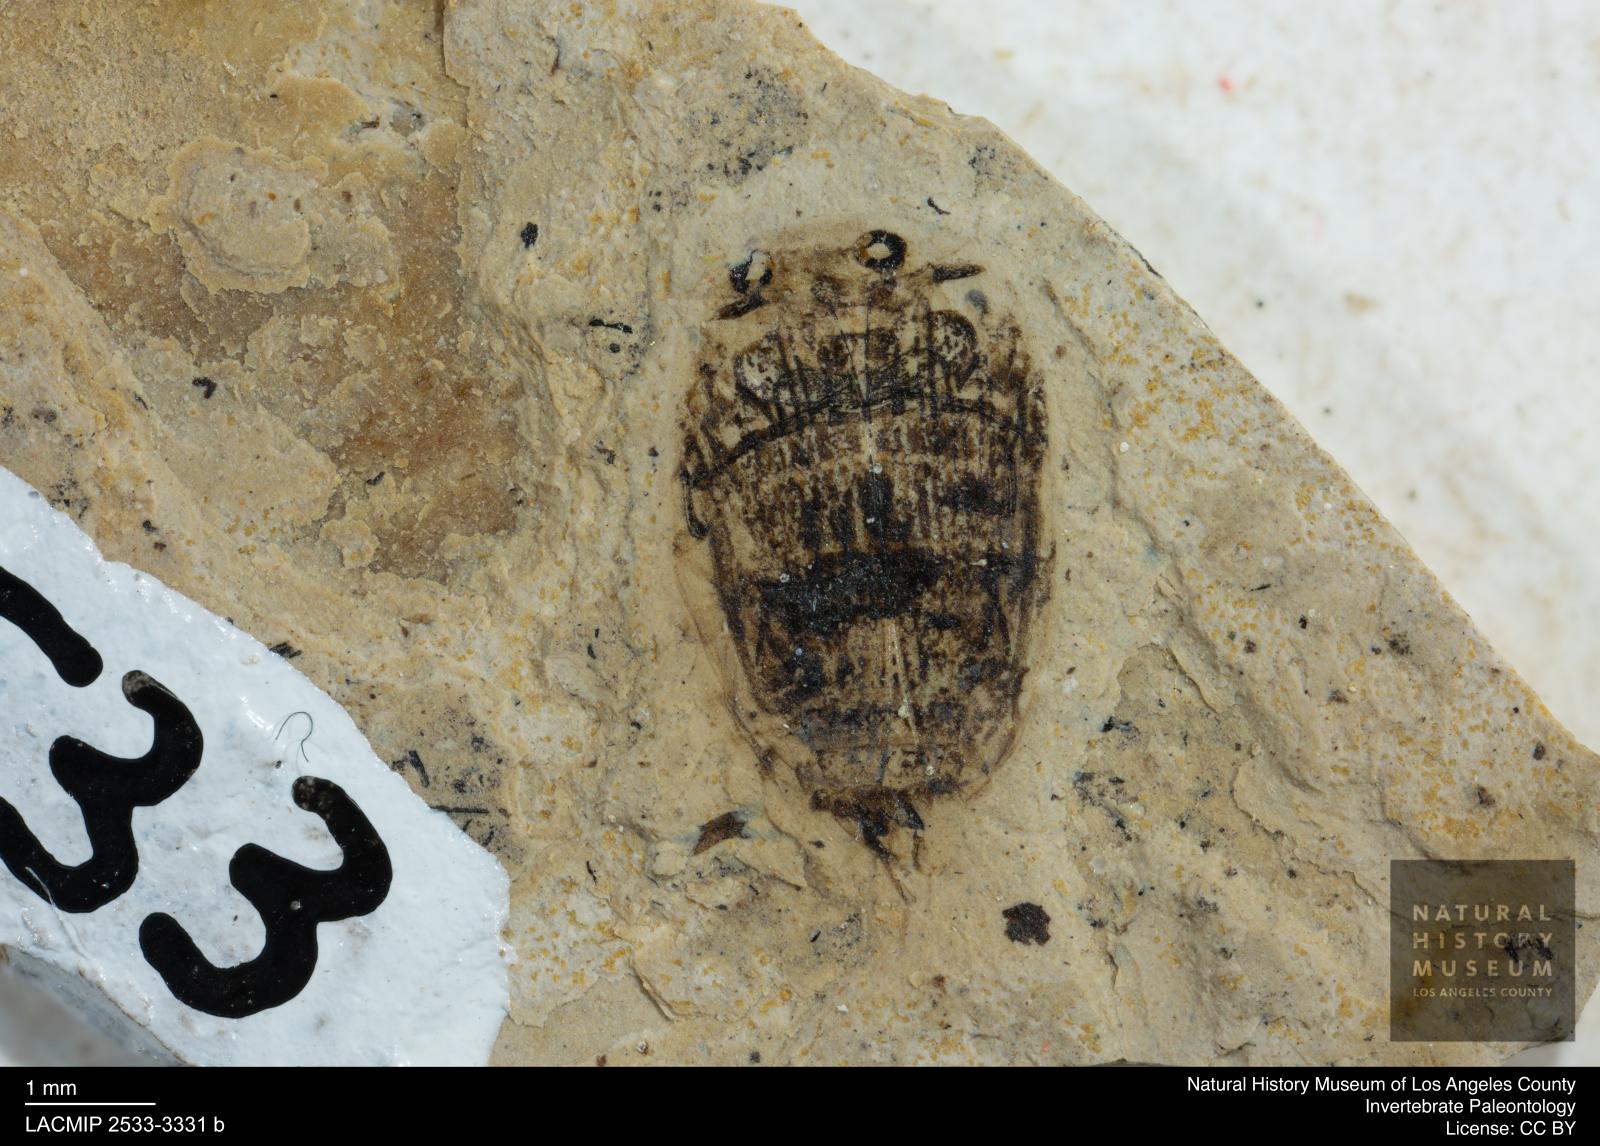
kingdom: Animalia
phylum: Arthropoda
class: Insecta
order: Coleoptera
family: Dytiscidae
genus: Laccophilus
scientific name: Laccophilus Palaeogyrinus strigatus
